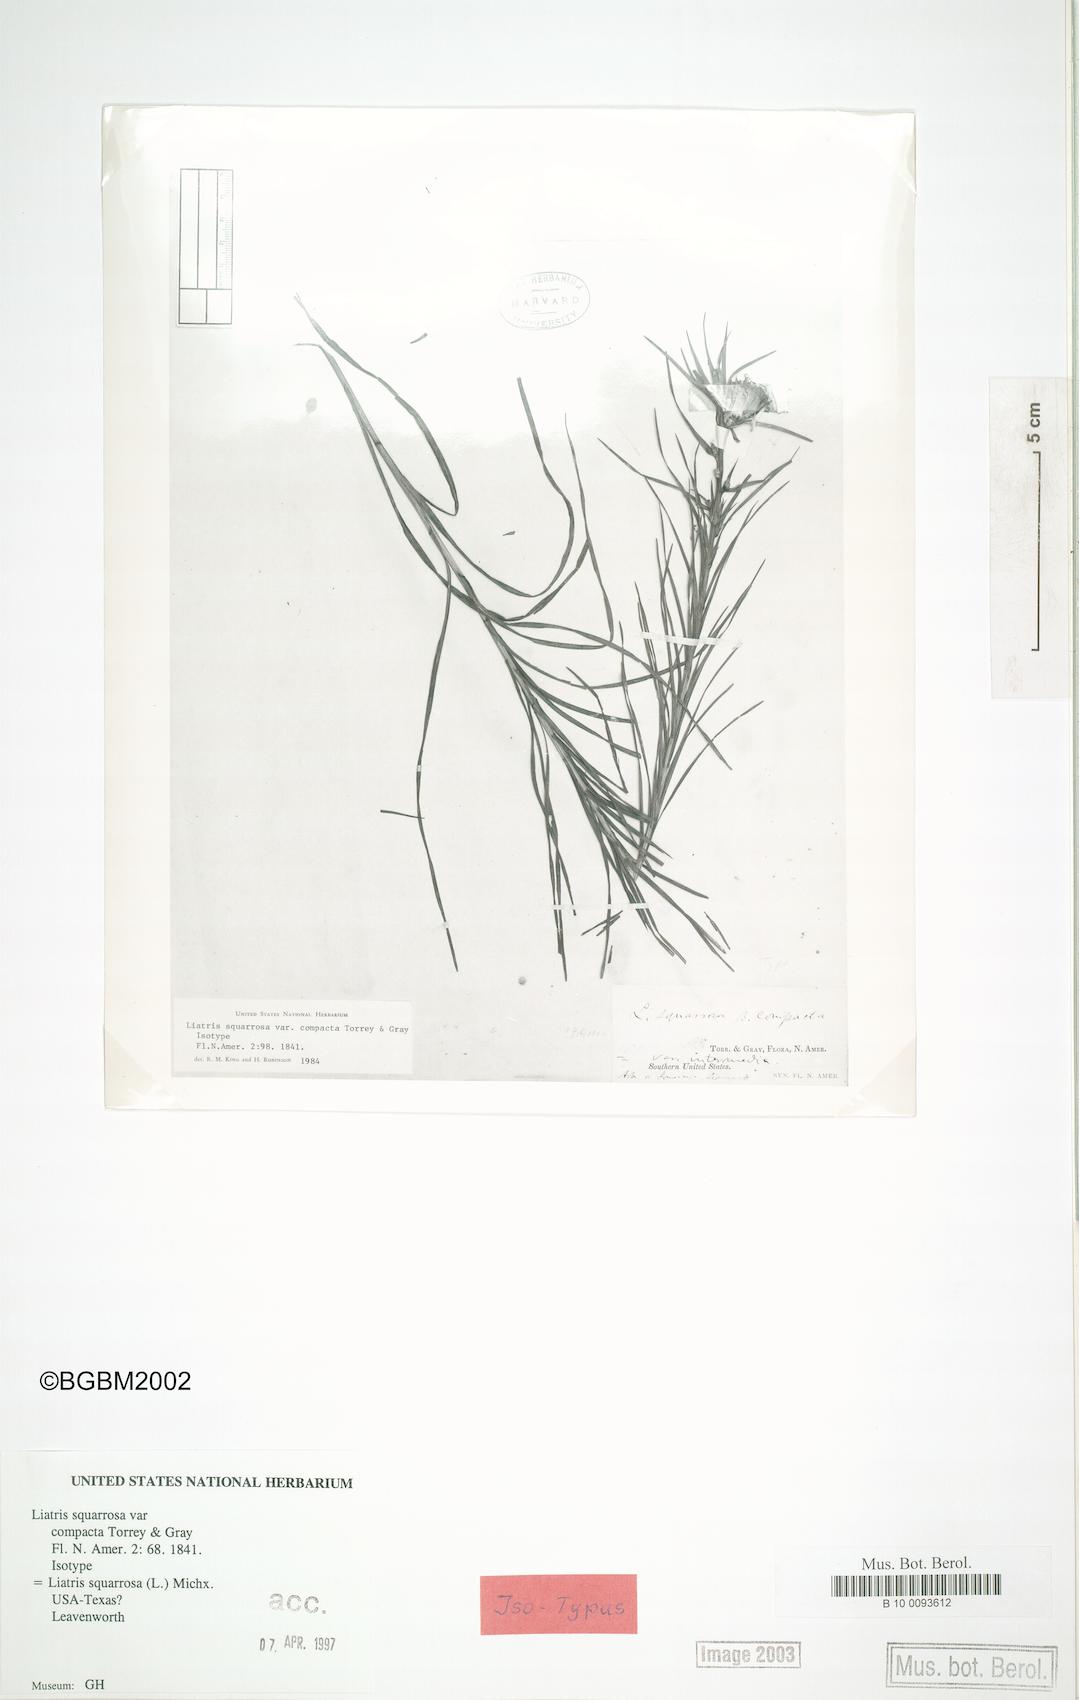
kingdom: Plantae
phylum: Tracheophyta
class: Magnoliopsida
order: Asterales
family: Asteraceae
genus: Liatris
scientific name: Liatris spicata
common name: Florist gayfeather
